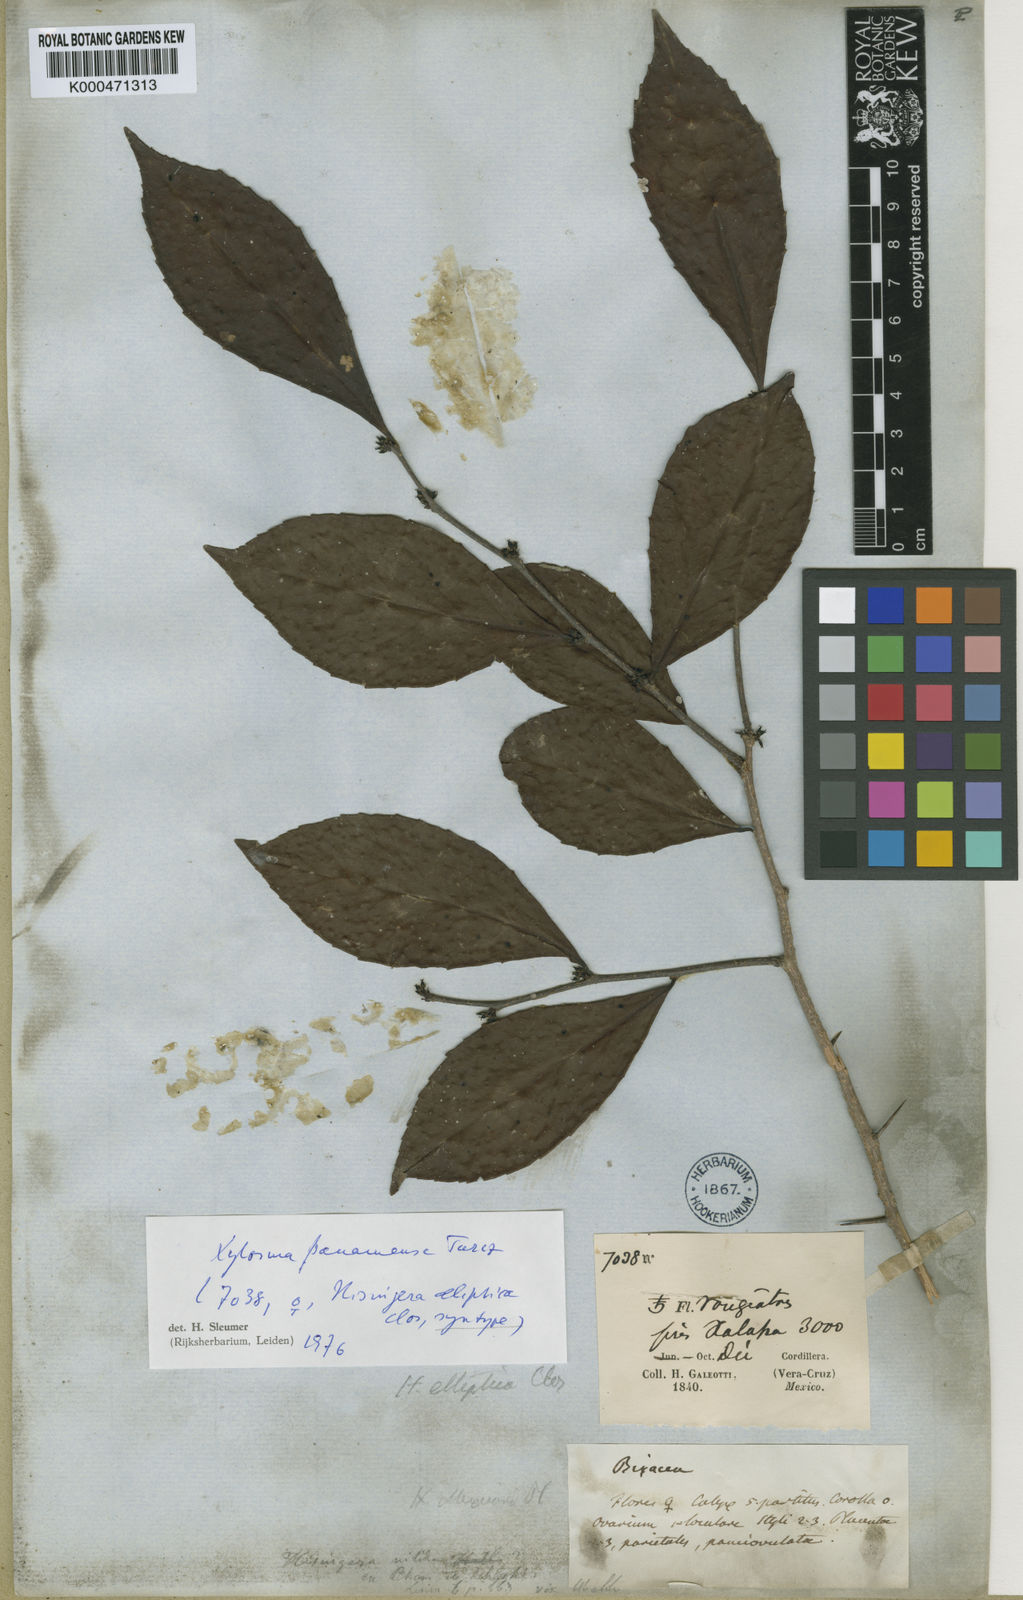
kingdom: Plantae
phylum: Tracheophyta
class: Magnoliopsida
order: Malpighiales
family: Salicaceae
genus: Xylosma
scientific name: Xylosma panamensis
